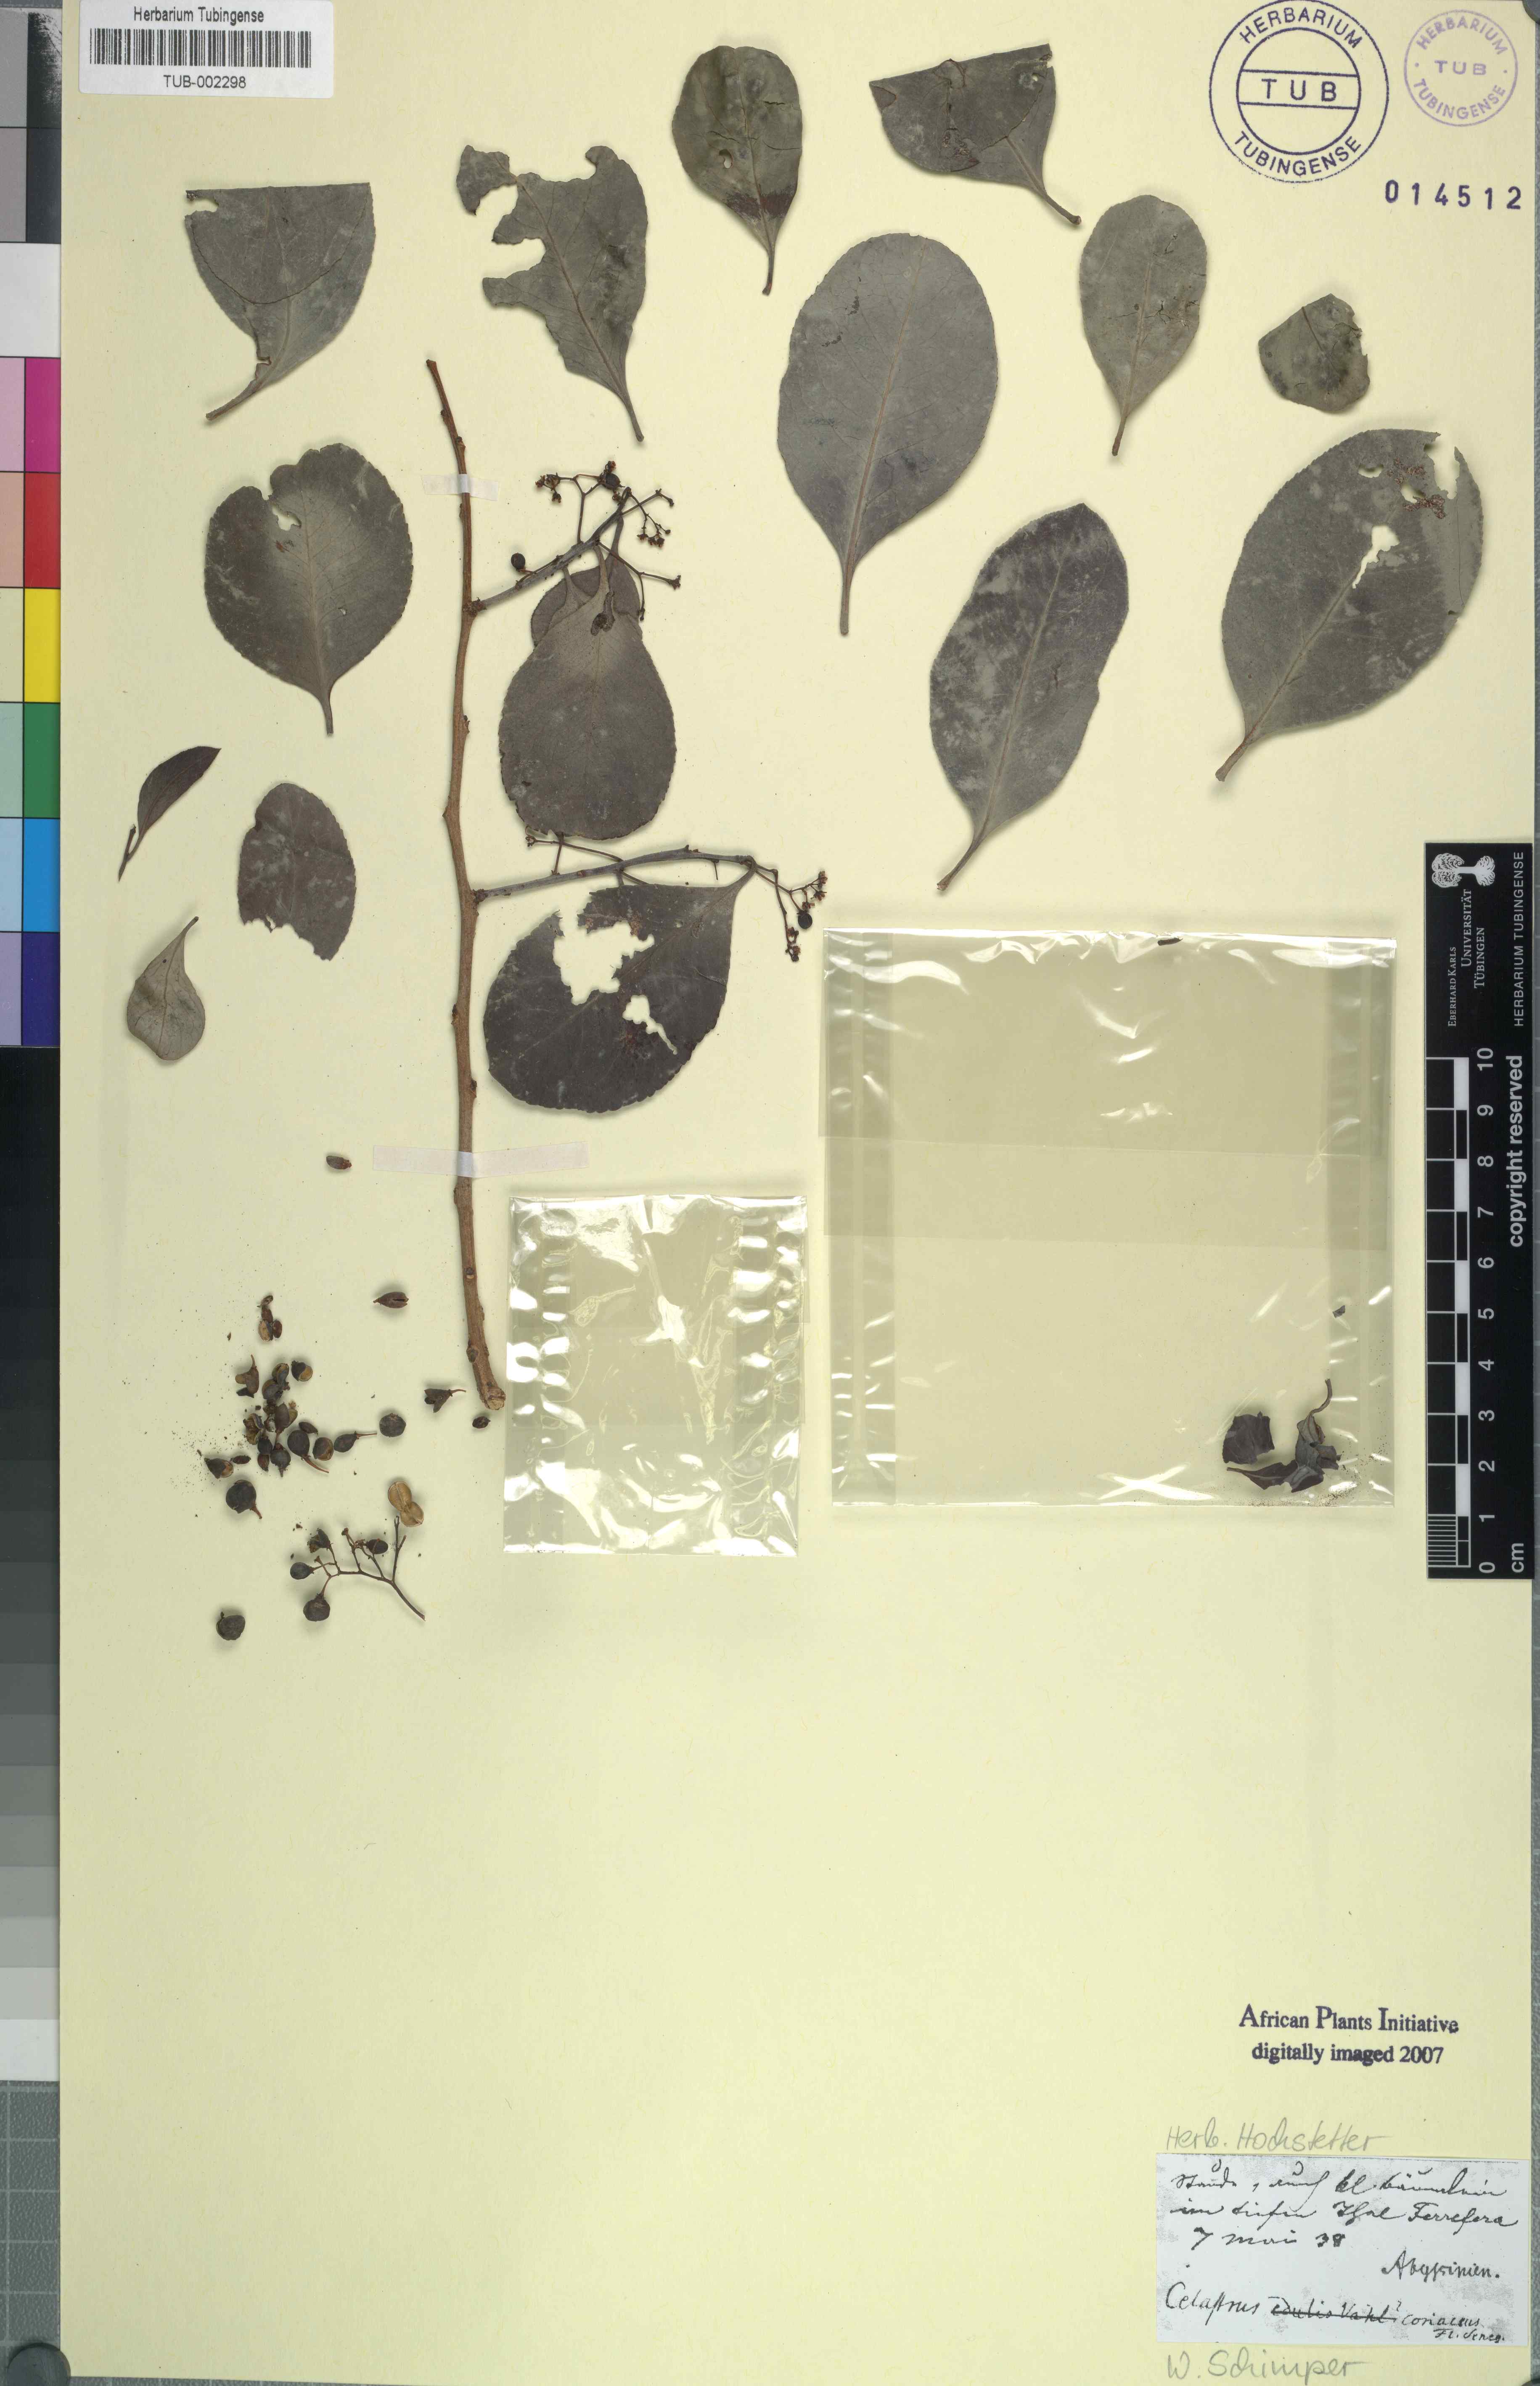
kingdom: Plantae
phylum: Tracheophyta
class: Magnoliopsida
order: Celastrales
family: Celastraceae
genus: Gymnosporia
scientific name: Gymnosporia senegalensis
